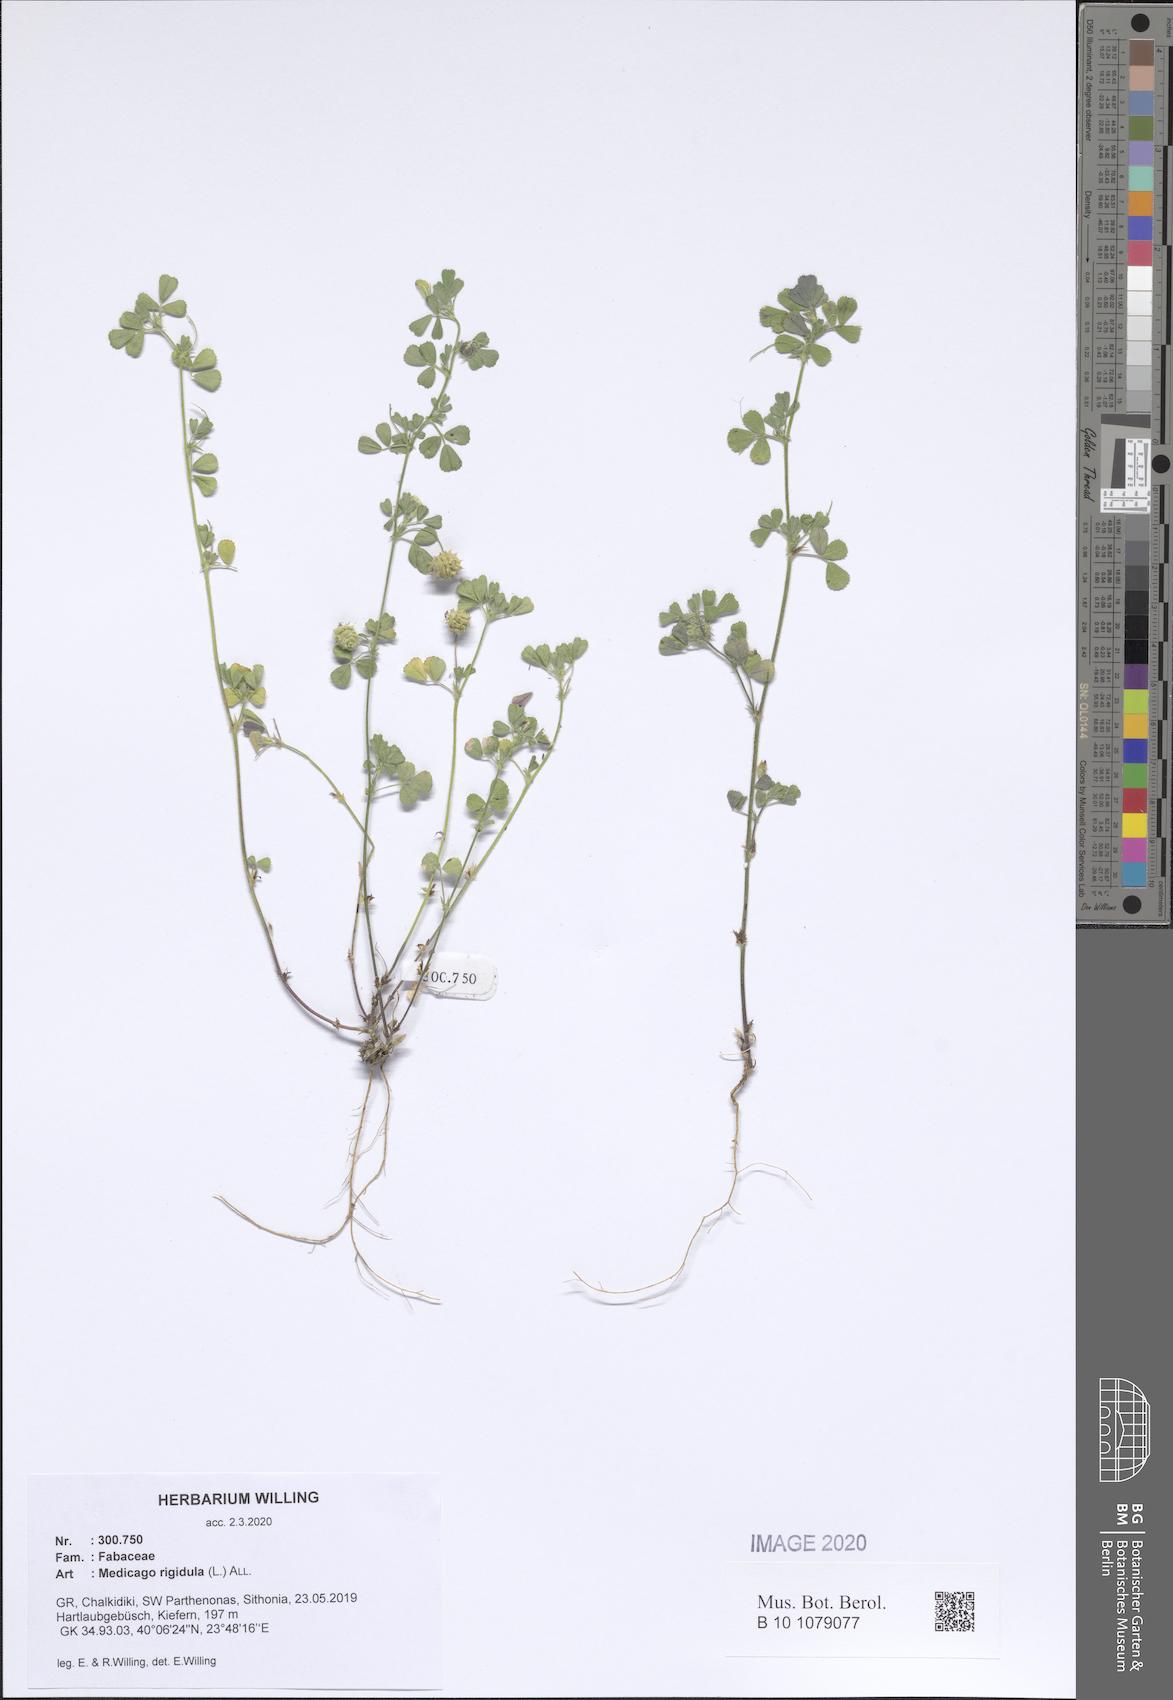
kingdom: Plantae
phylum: Tracheophyta
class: Magnoliopsida
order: Fabales
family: Fabaceae
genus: Medicago
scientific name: Medicago rigidula
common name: Tifton medic
